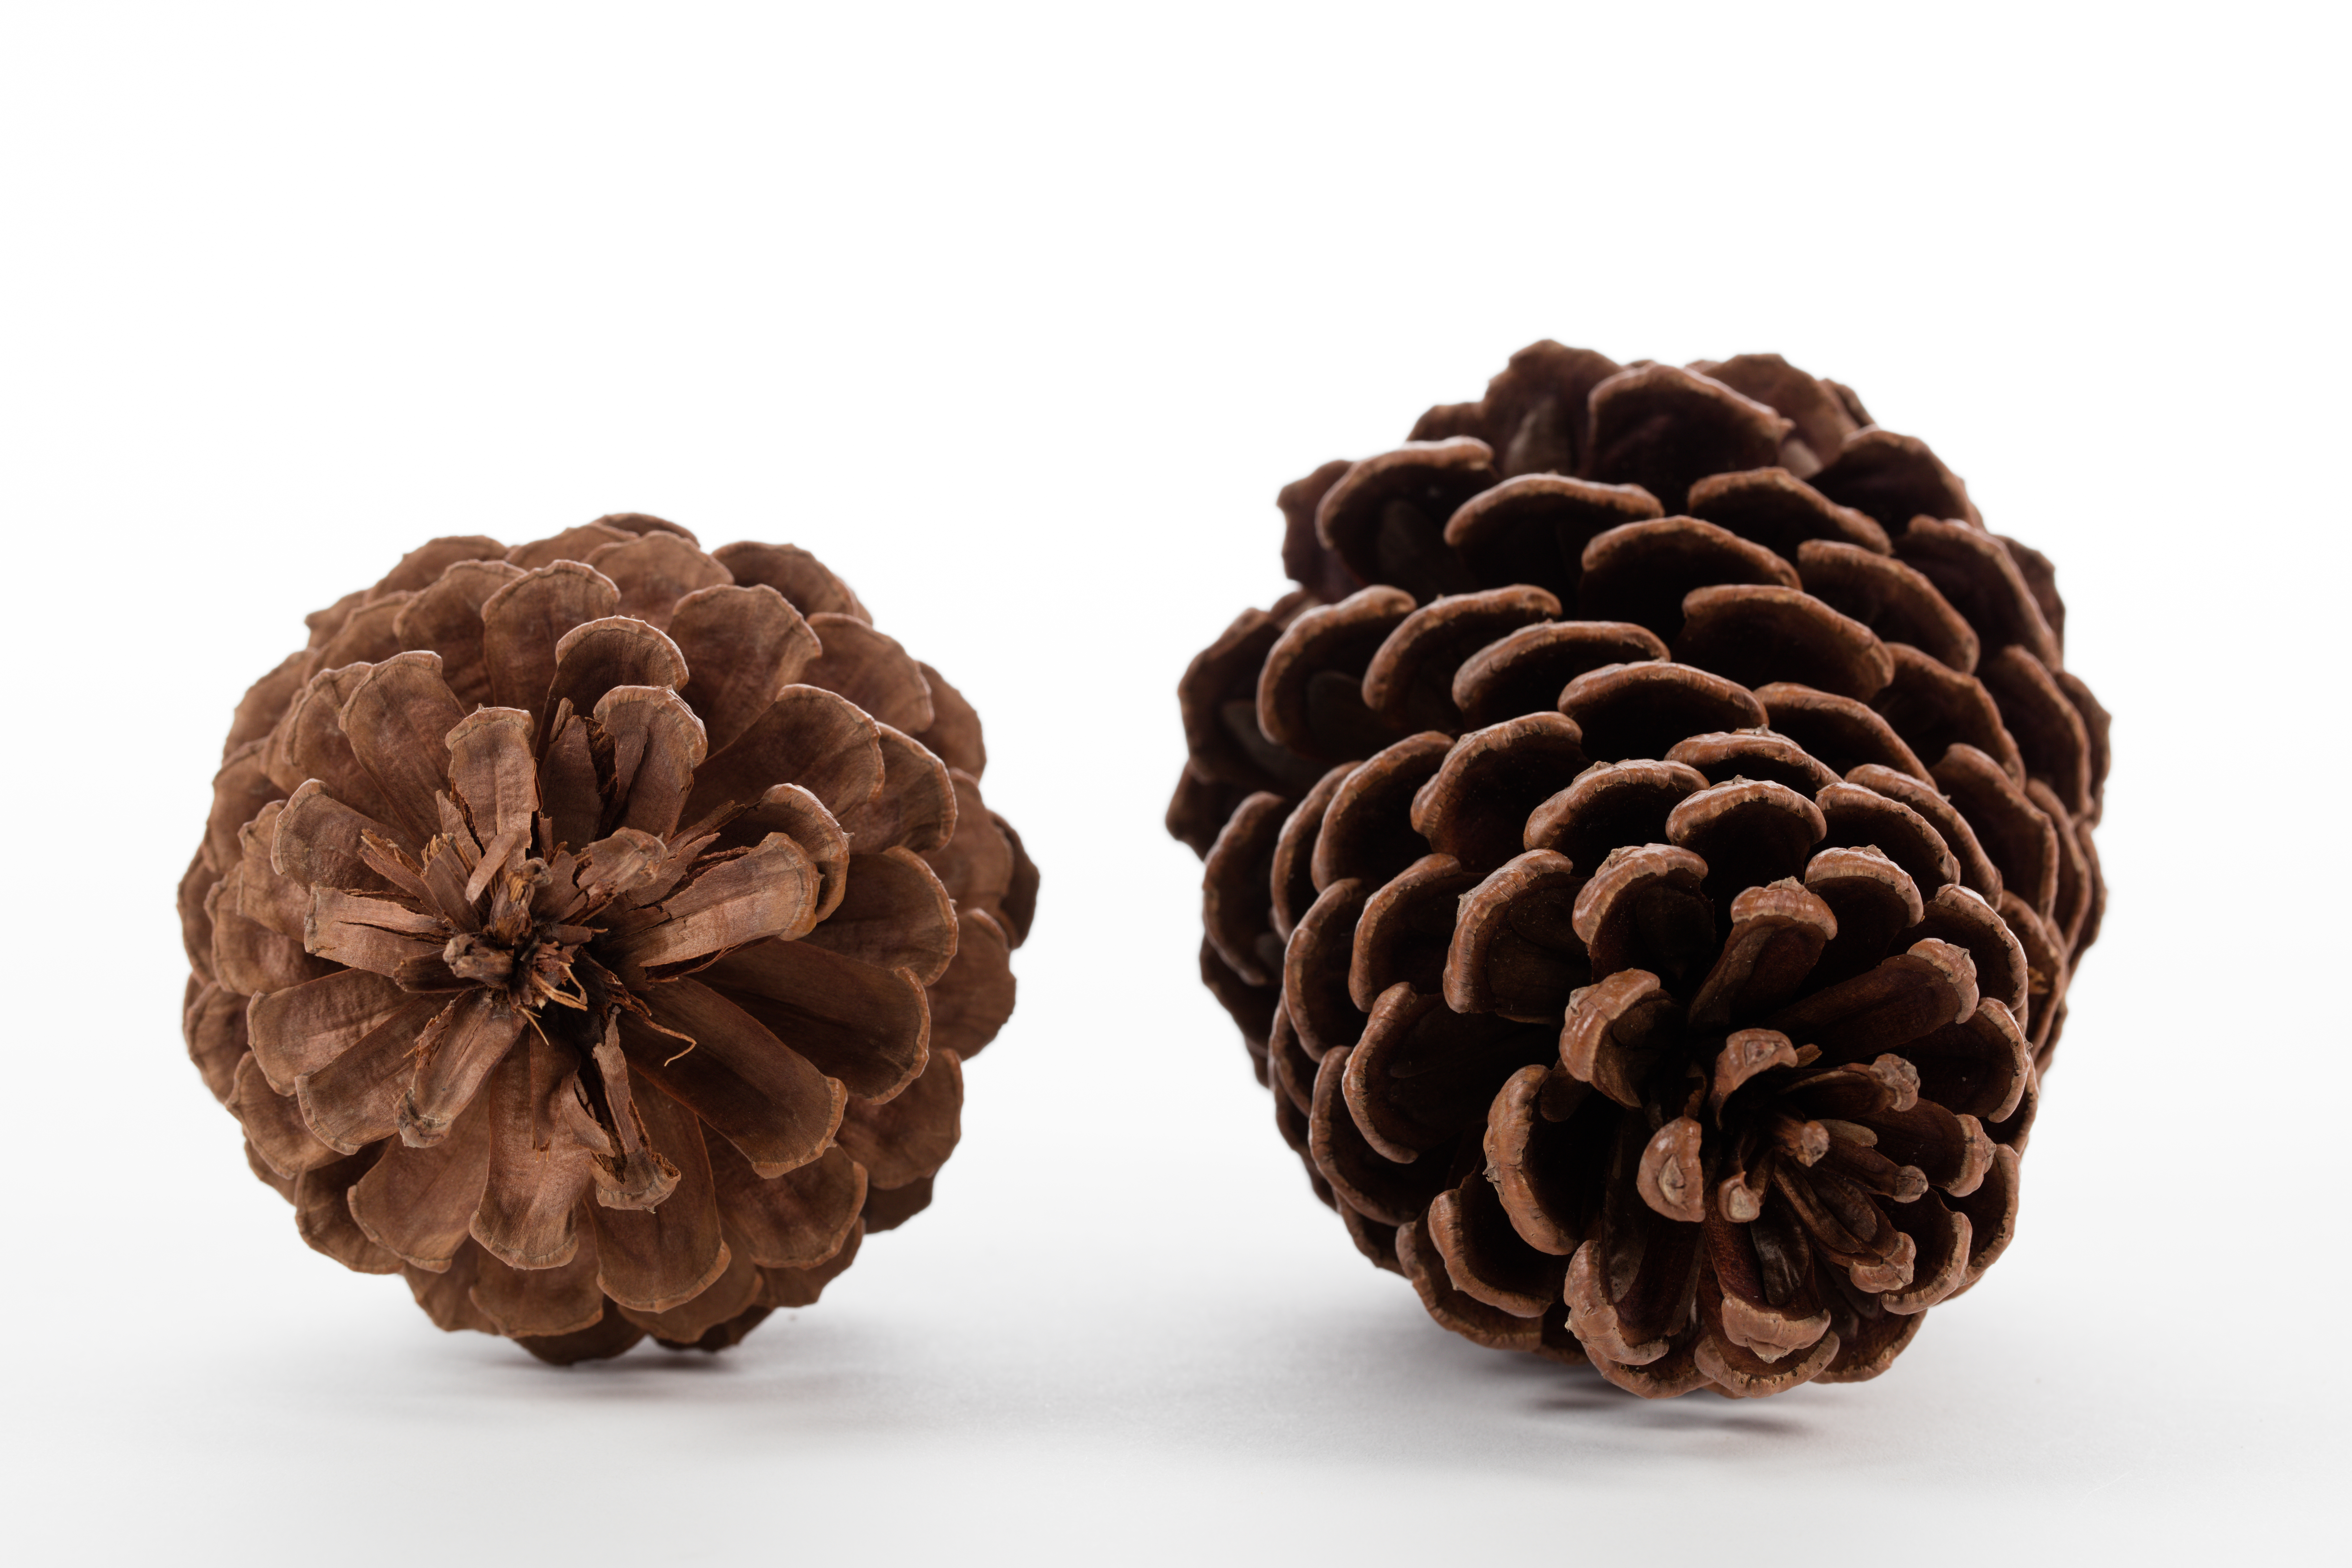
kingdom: Plantae
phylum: Tracheophyta
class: Pinopsida
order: Pinales
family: Pinaceae
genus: Pinus
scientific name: Pinus elliottii
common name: Slash pine
